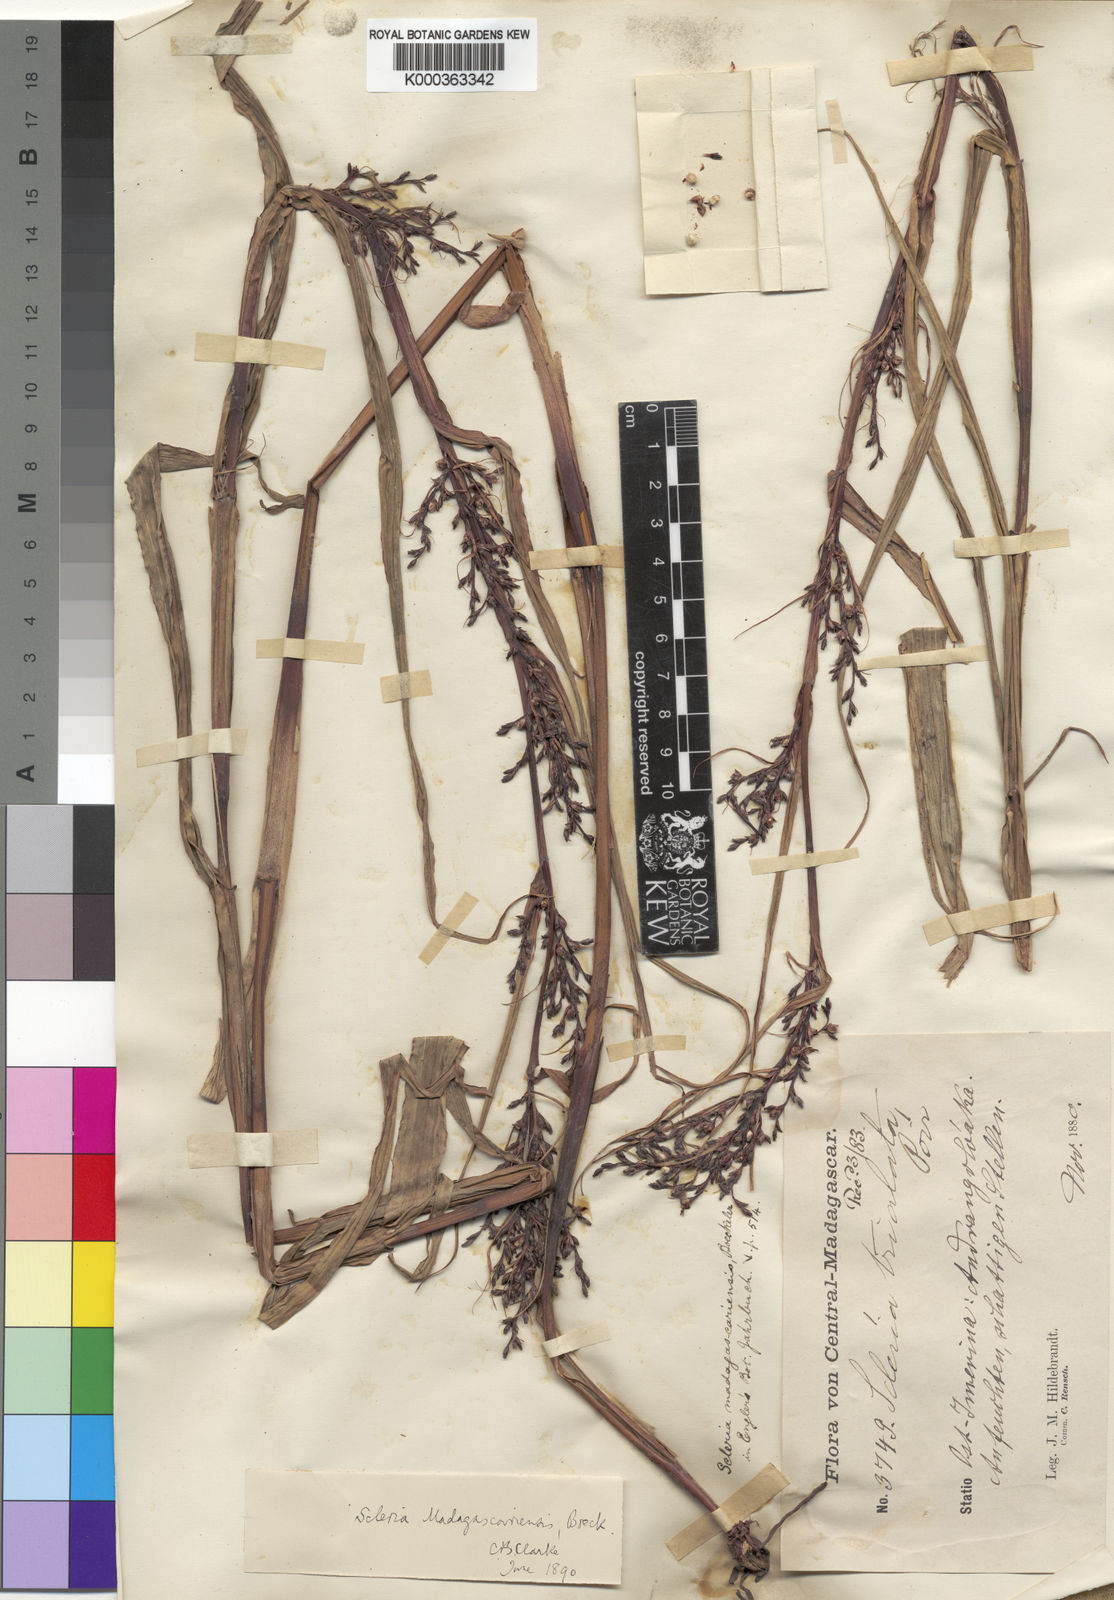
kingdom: Plantae
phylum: Tracheophyta
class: Liliopsida
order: Poales
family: Cyperaceae
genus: Scleria
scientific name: Scleria madagascariensis
